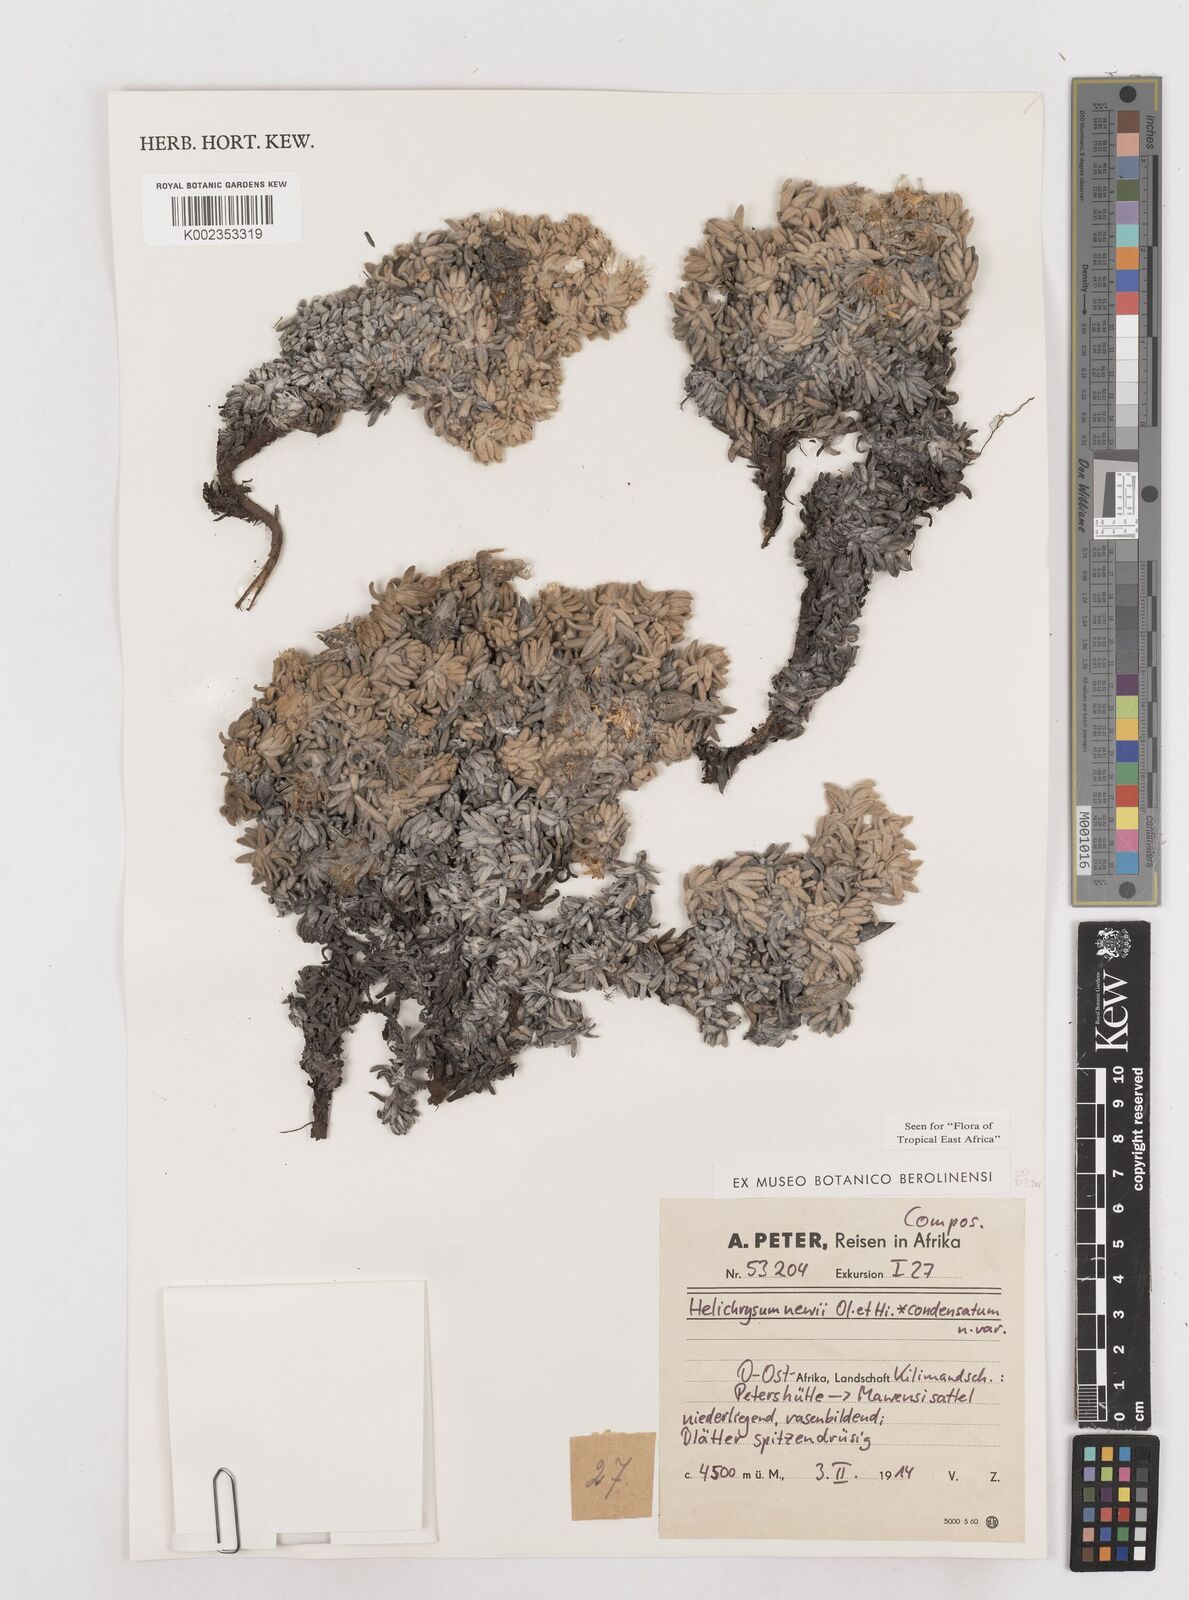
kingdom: Plantae
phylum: Tracheophyta
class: Magnoliopsida
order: Asterales
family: Asteraceae
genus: Helichrysum
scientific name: Helichrysum newii
